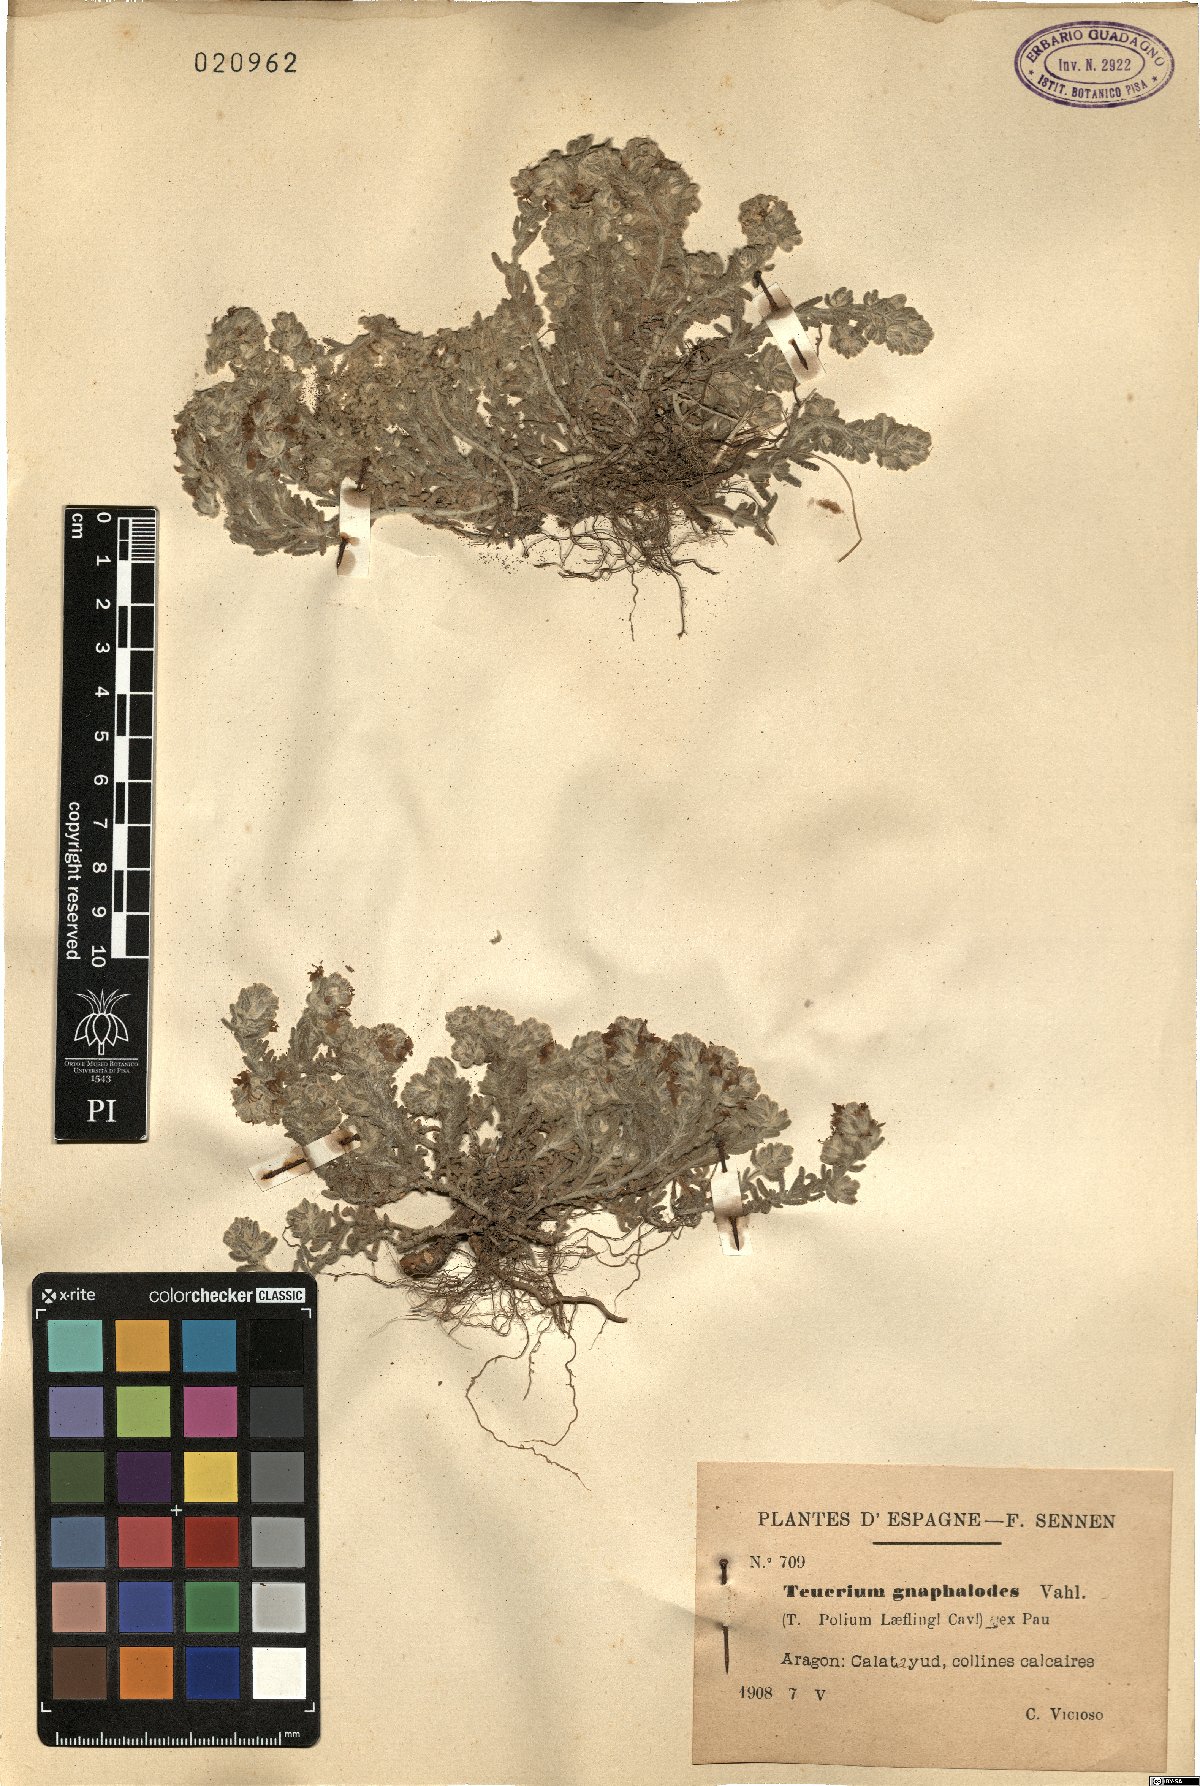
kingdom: Plantae
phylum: Tracheophyta
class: Magnoliopsida
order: Lamiales
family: Lamiaceae
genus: Teucrium
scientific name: Teucrium gnaphalodes
